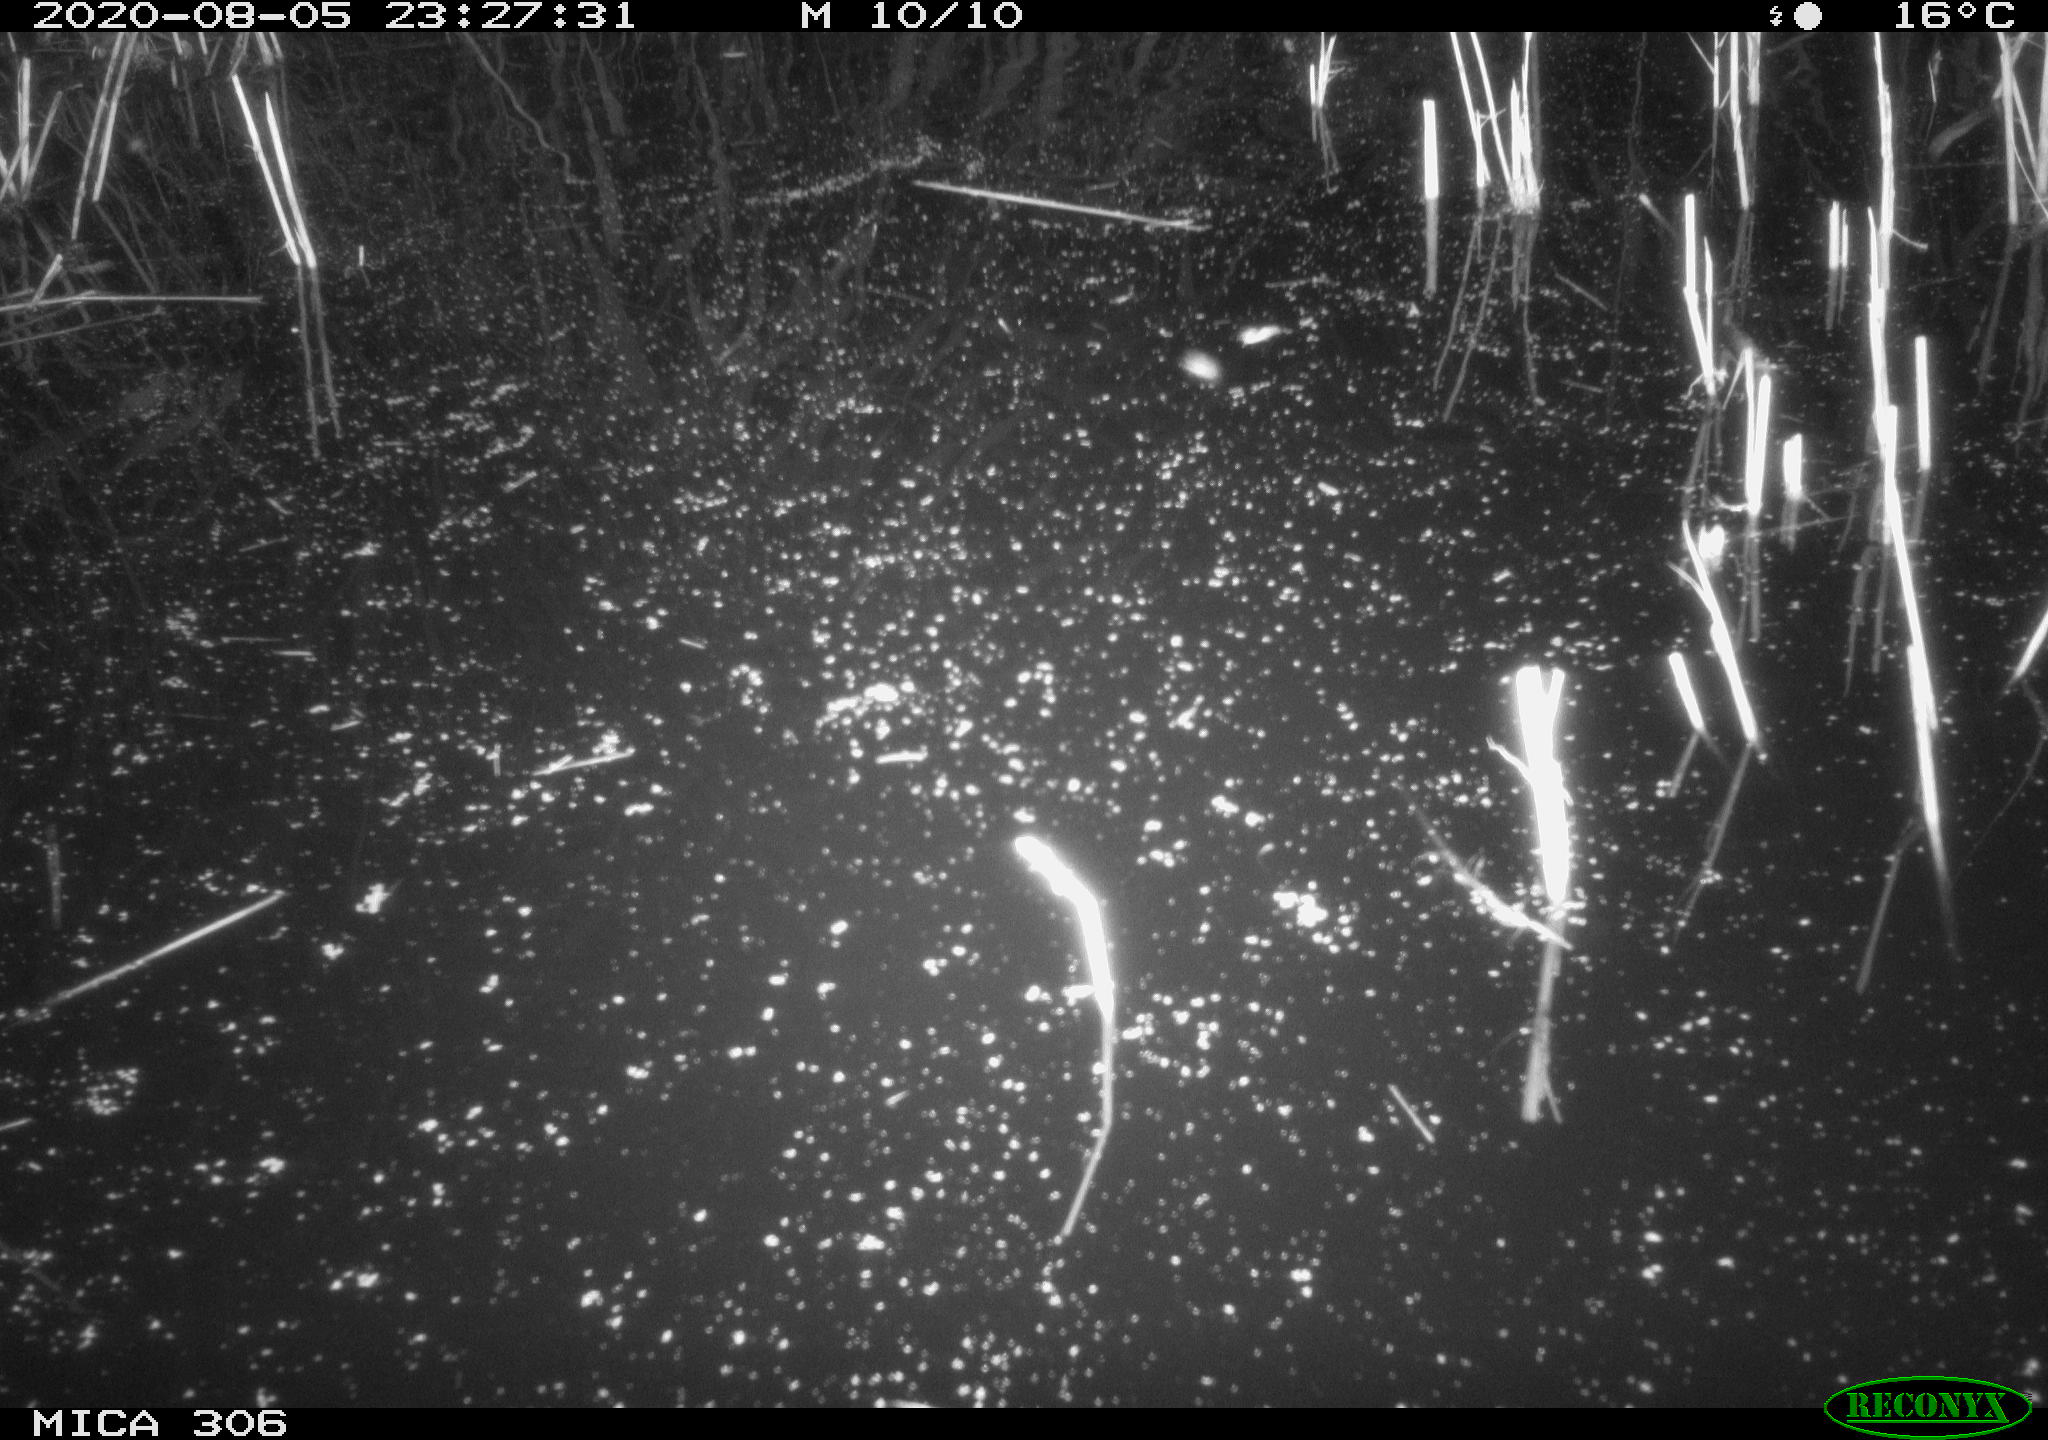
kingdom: Animalia
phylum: Chordata
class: Mammalia
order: Rodentia
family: Muridae
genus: Rattus
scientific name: Rattus norvegicus
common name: Brown rat
